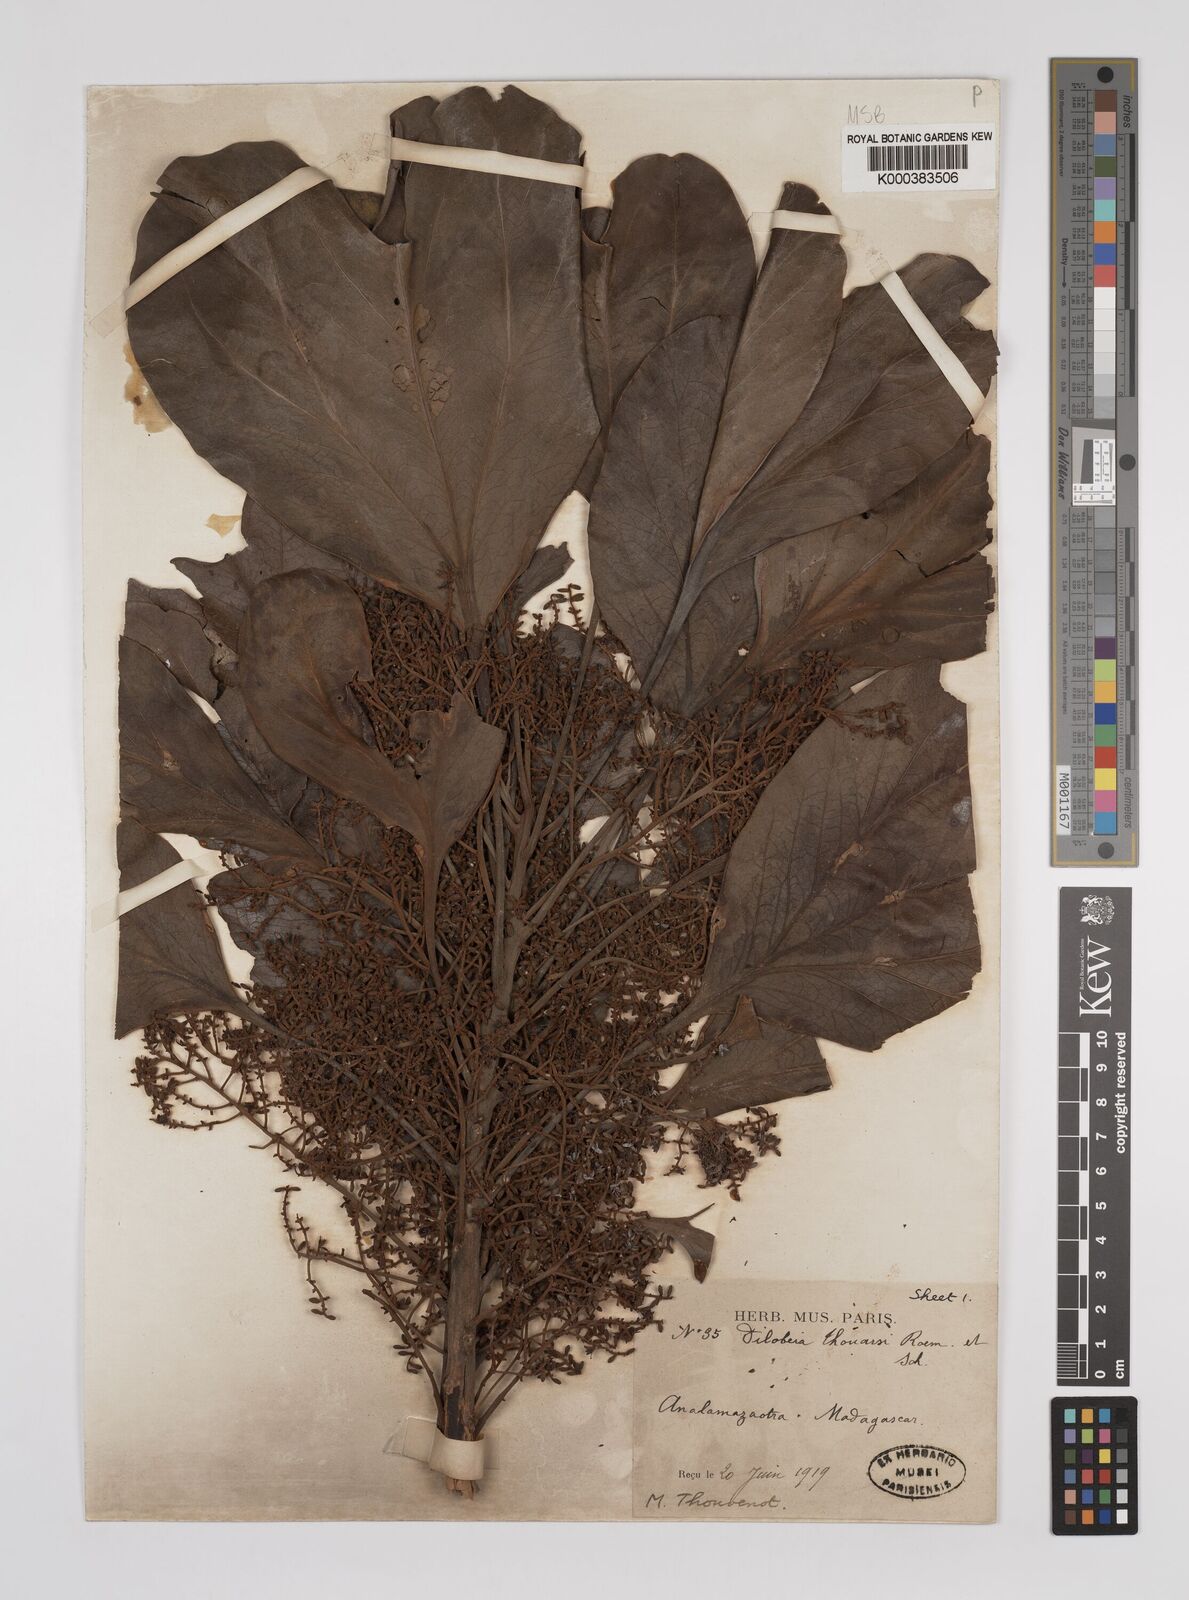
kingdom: Plantae
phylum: Tracheophyta
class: Magnoliopsida
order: Proteales
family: Proteaceae
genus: Dilobeia
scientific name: Dilobeia thouarsii
